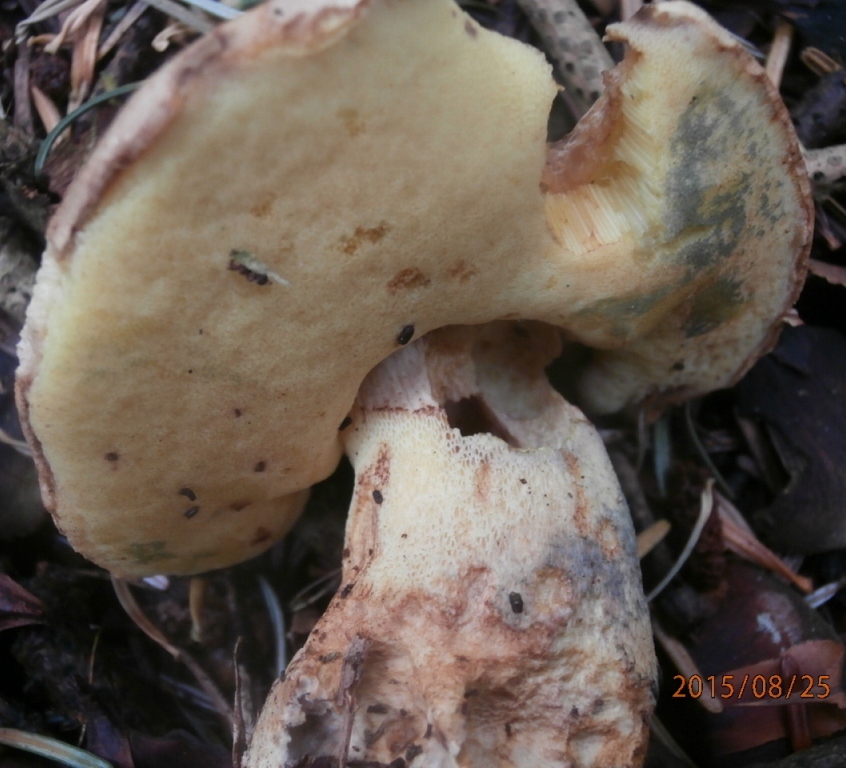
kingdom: Fungi
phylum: Basidiomycota
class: Agaricomycetes
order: Boletales
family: Boletaceae
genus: Butyriboletus
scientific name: Butyriboletus appendiculatus
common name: tenstokket rørhat
